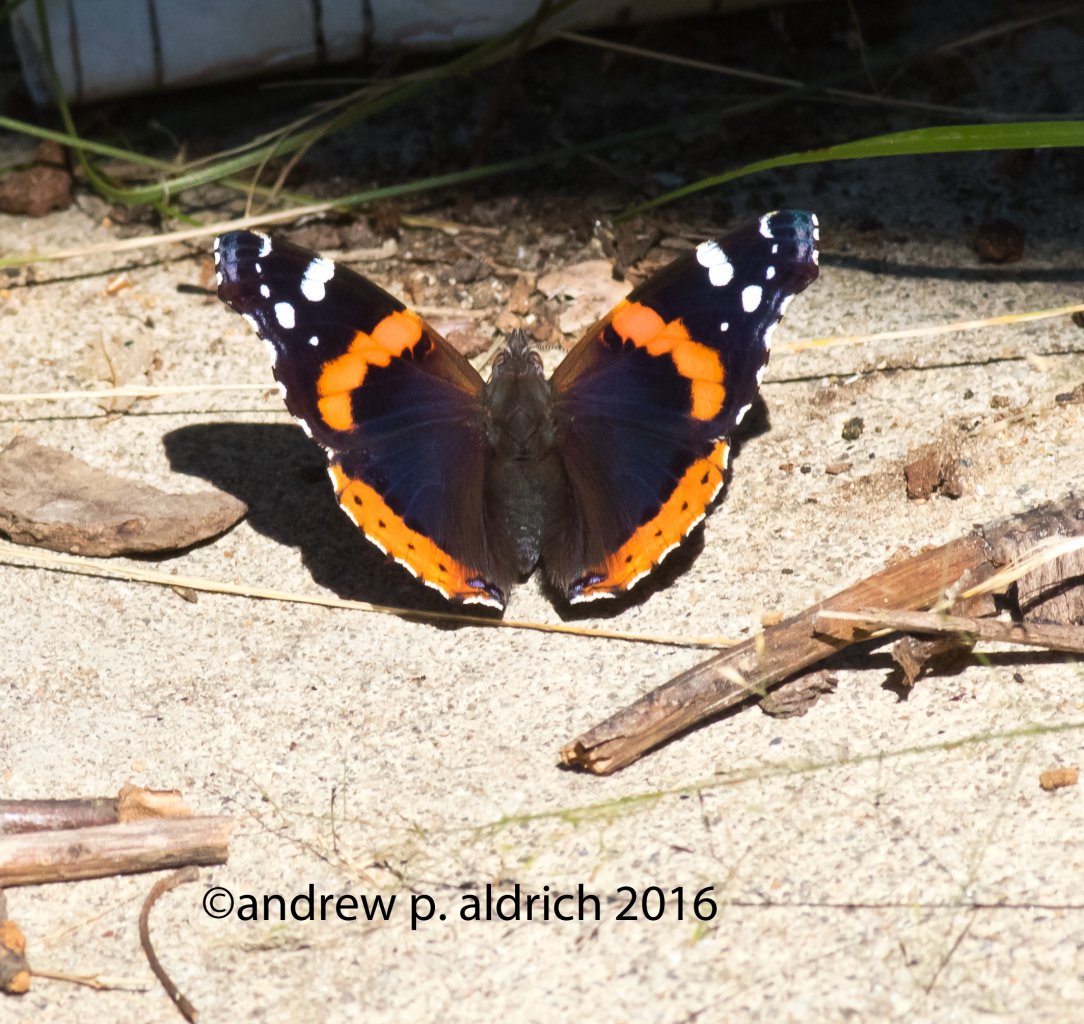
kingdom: Animalia
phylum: Arthropoda
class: Insecta
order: Lepidoptera
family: Nymphalidae
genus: Vanessa
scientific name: Vanessa atalanta
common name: Red Admiral
